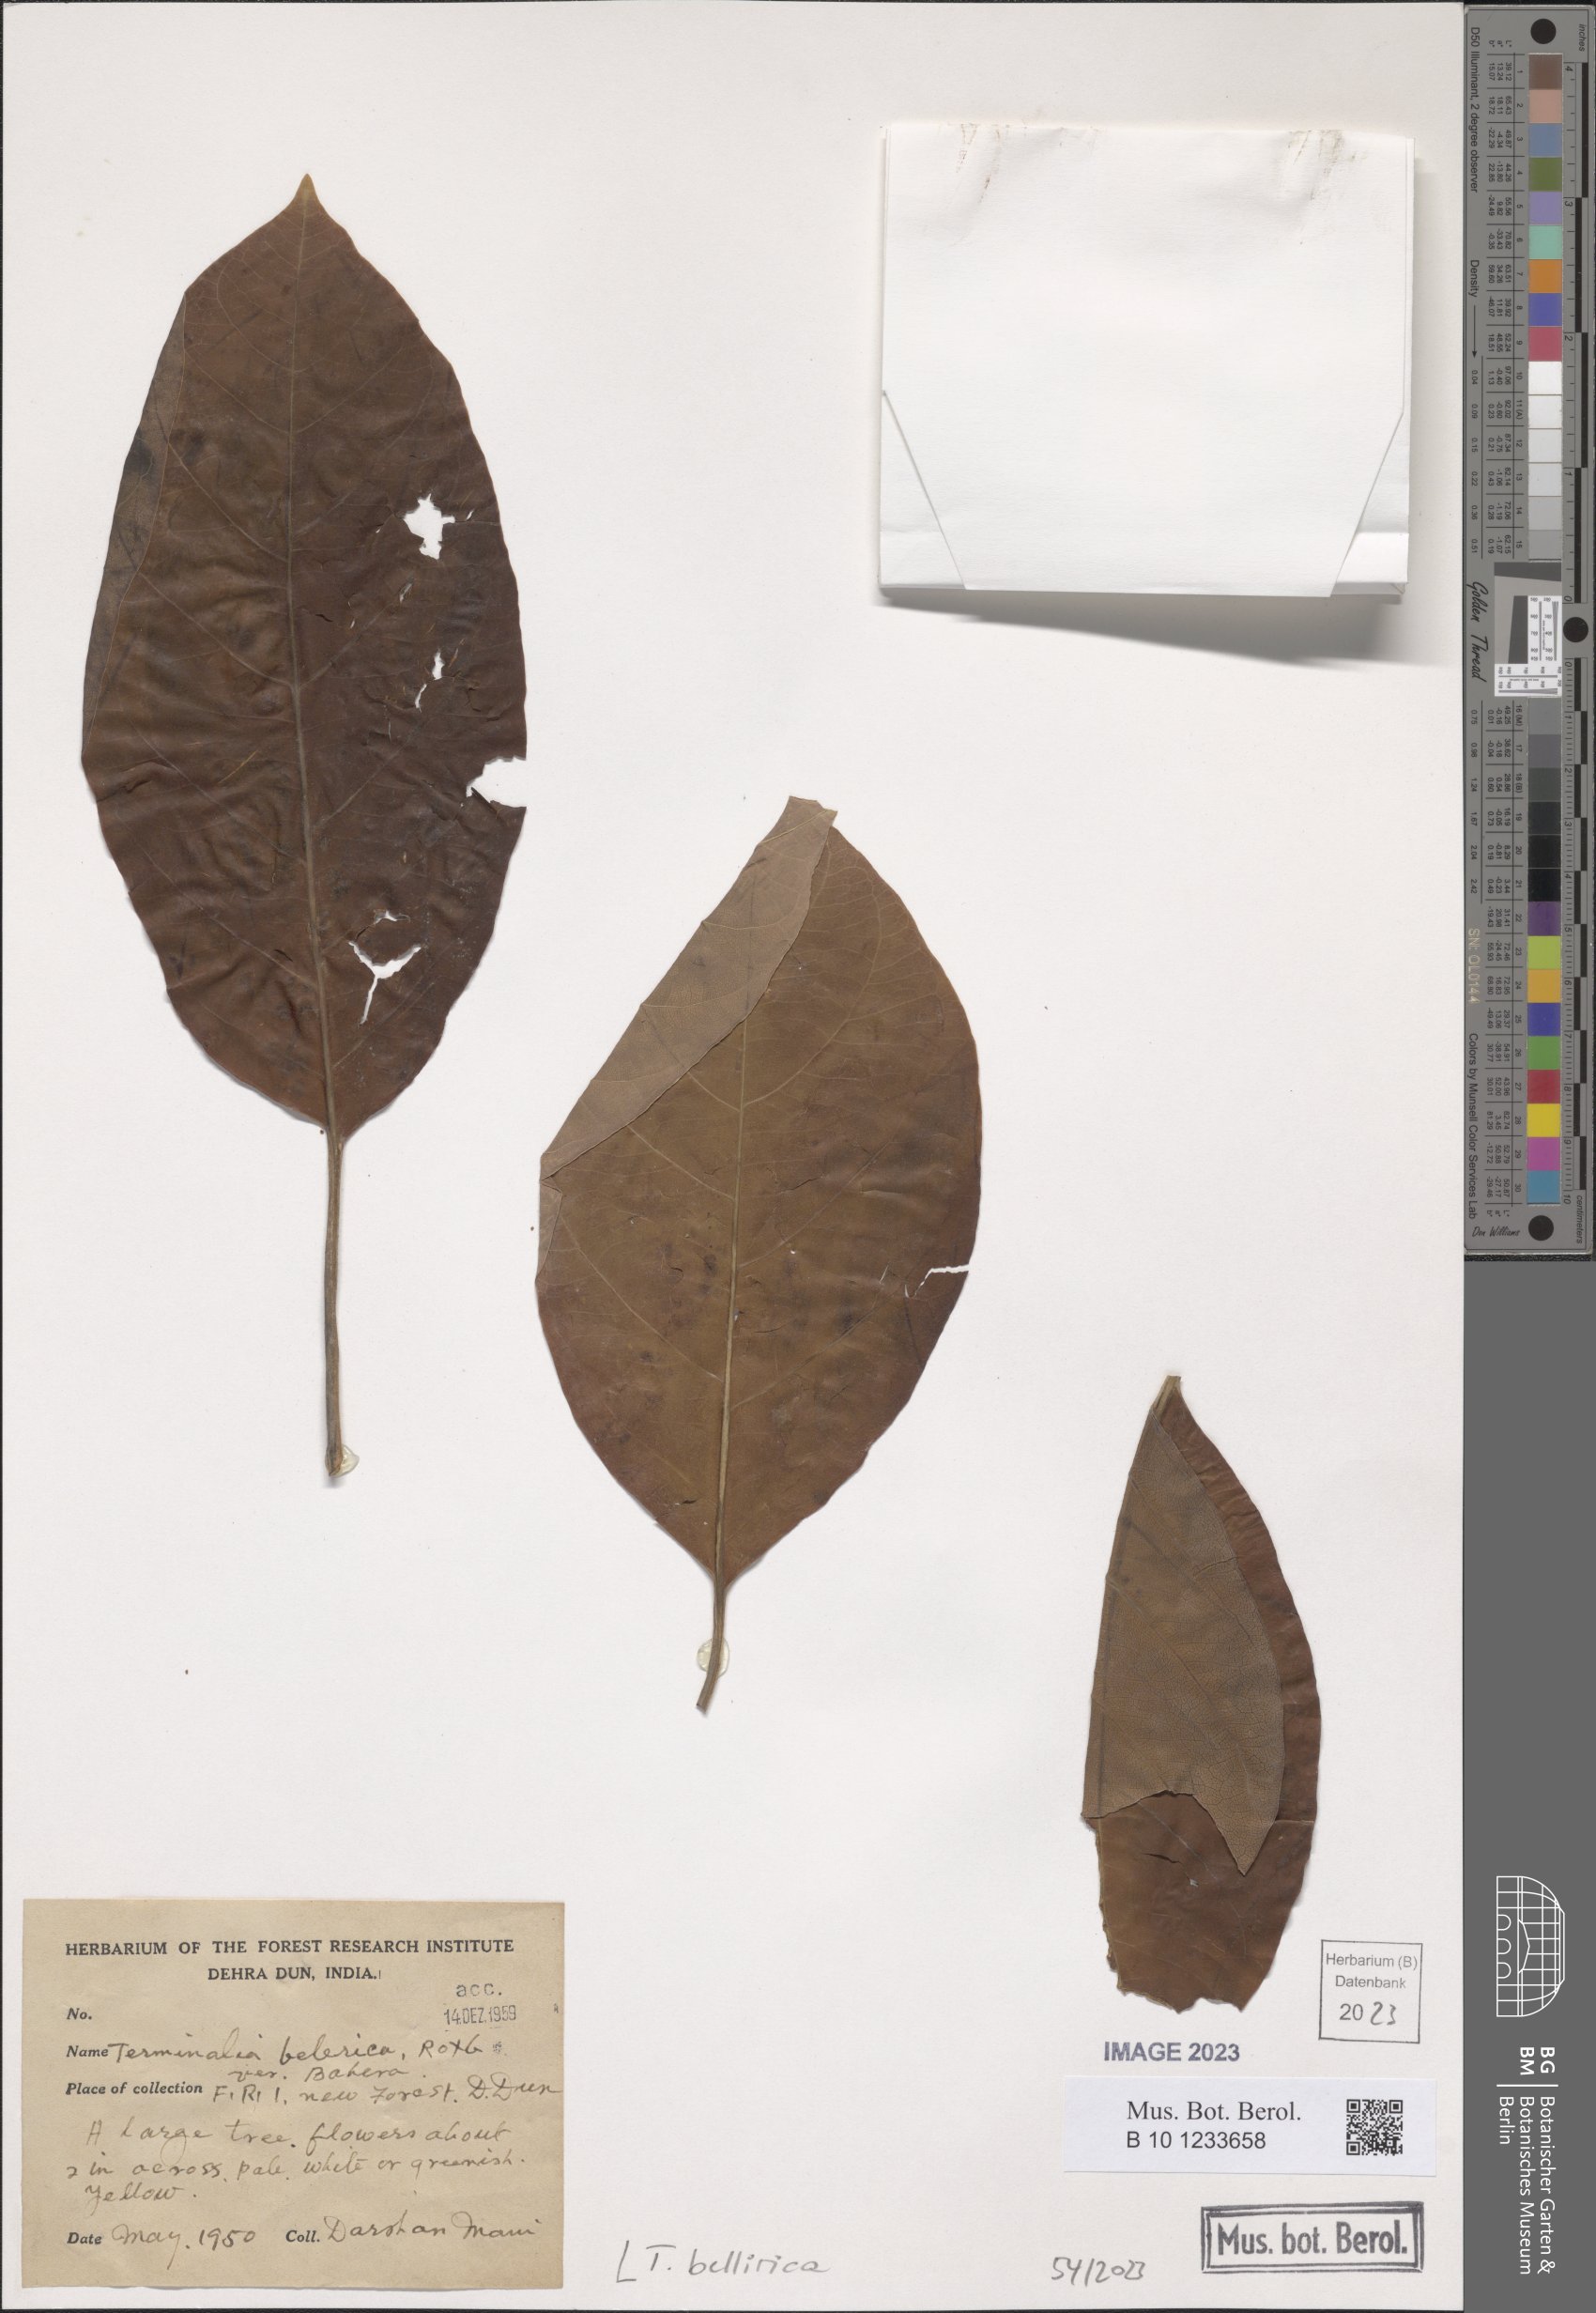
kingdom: Plantae
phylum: Tracheophyta
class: Magnoliopsida
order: Myrtales
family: Combretaceae
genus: Terminalia
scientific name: Terminalia bellirica
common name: Beleric myrobalan
